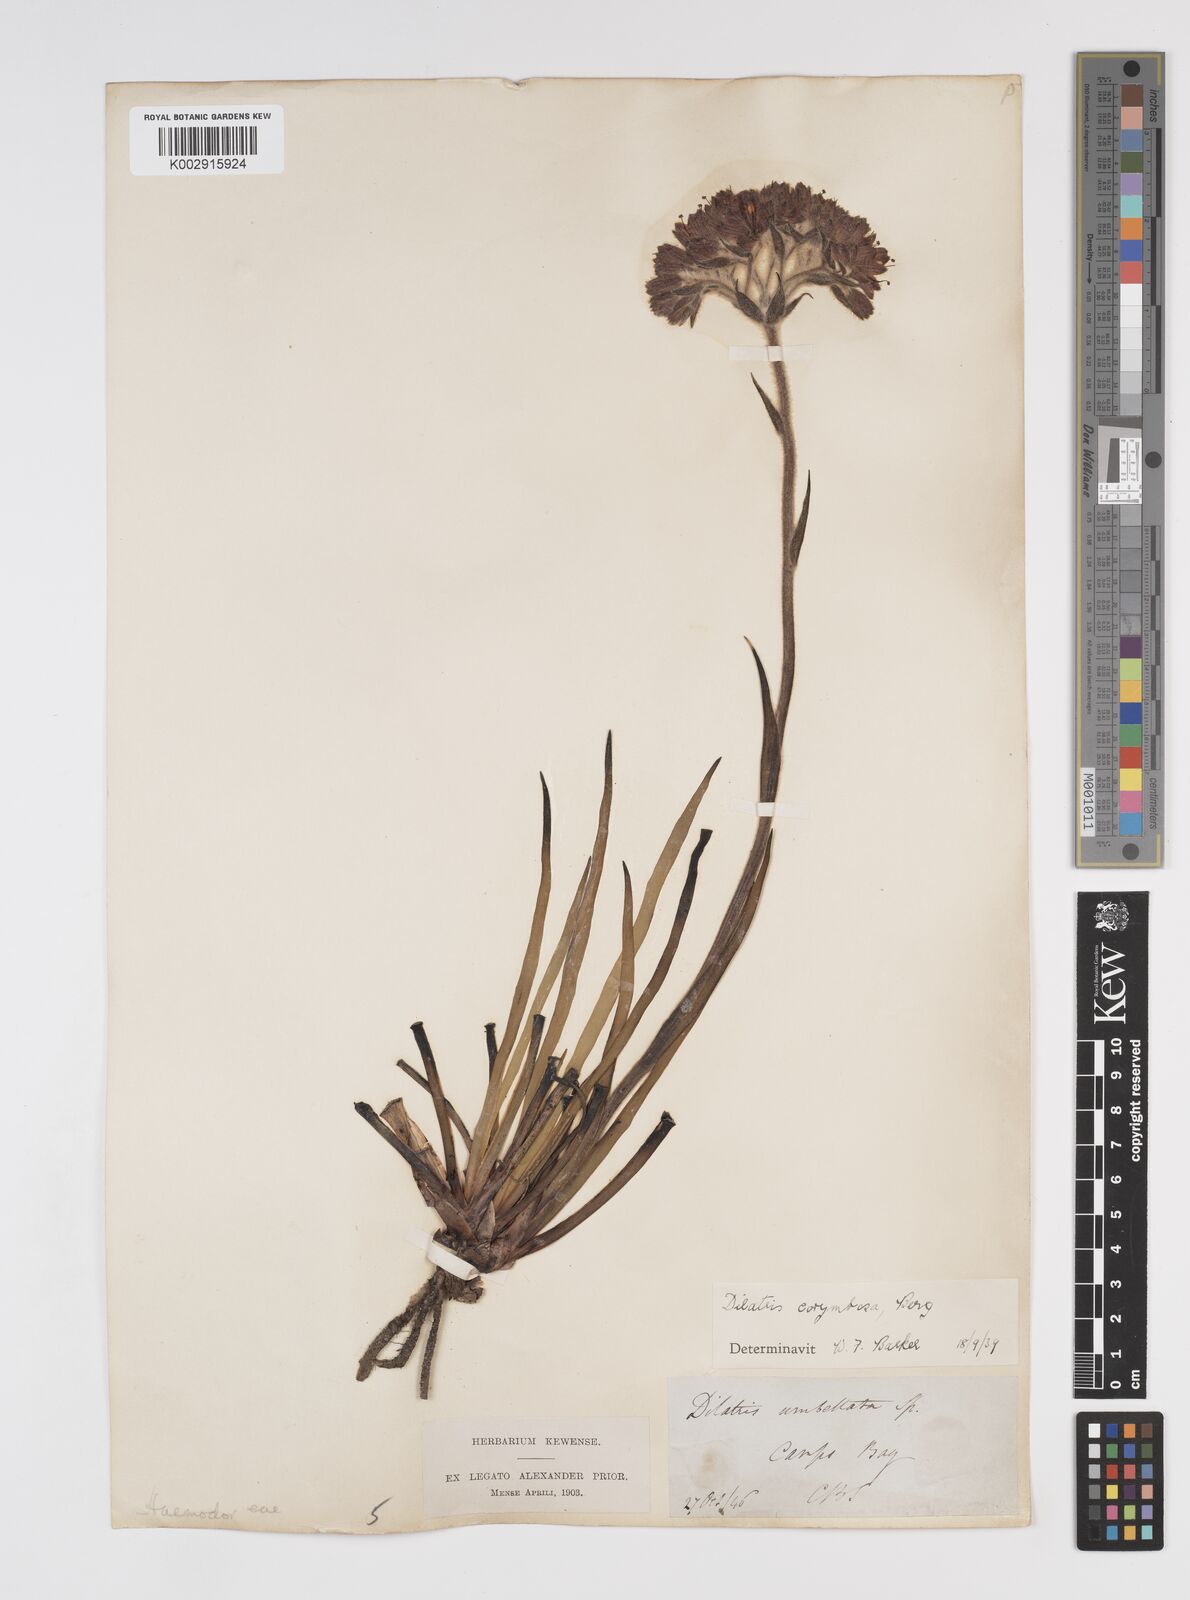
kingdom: Plantae
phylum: Tracheophyta
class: Liliopsida
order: Commelinales
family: Haemodoraceae
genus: Dilatris
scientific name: Dilatris corymbosa
